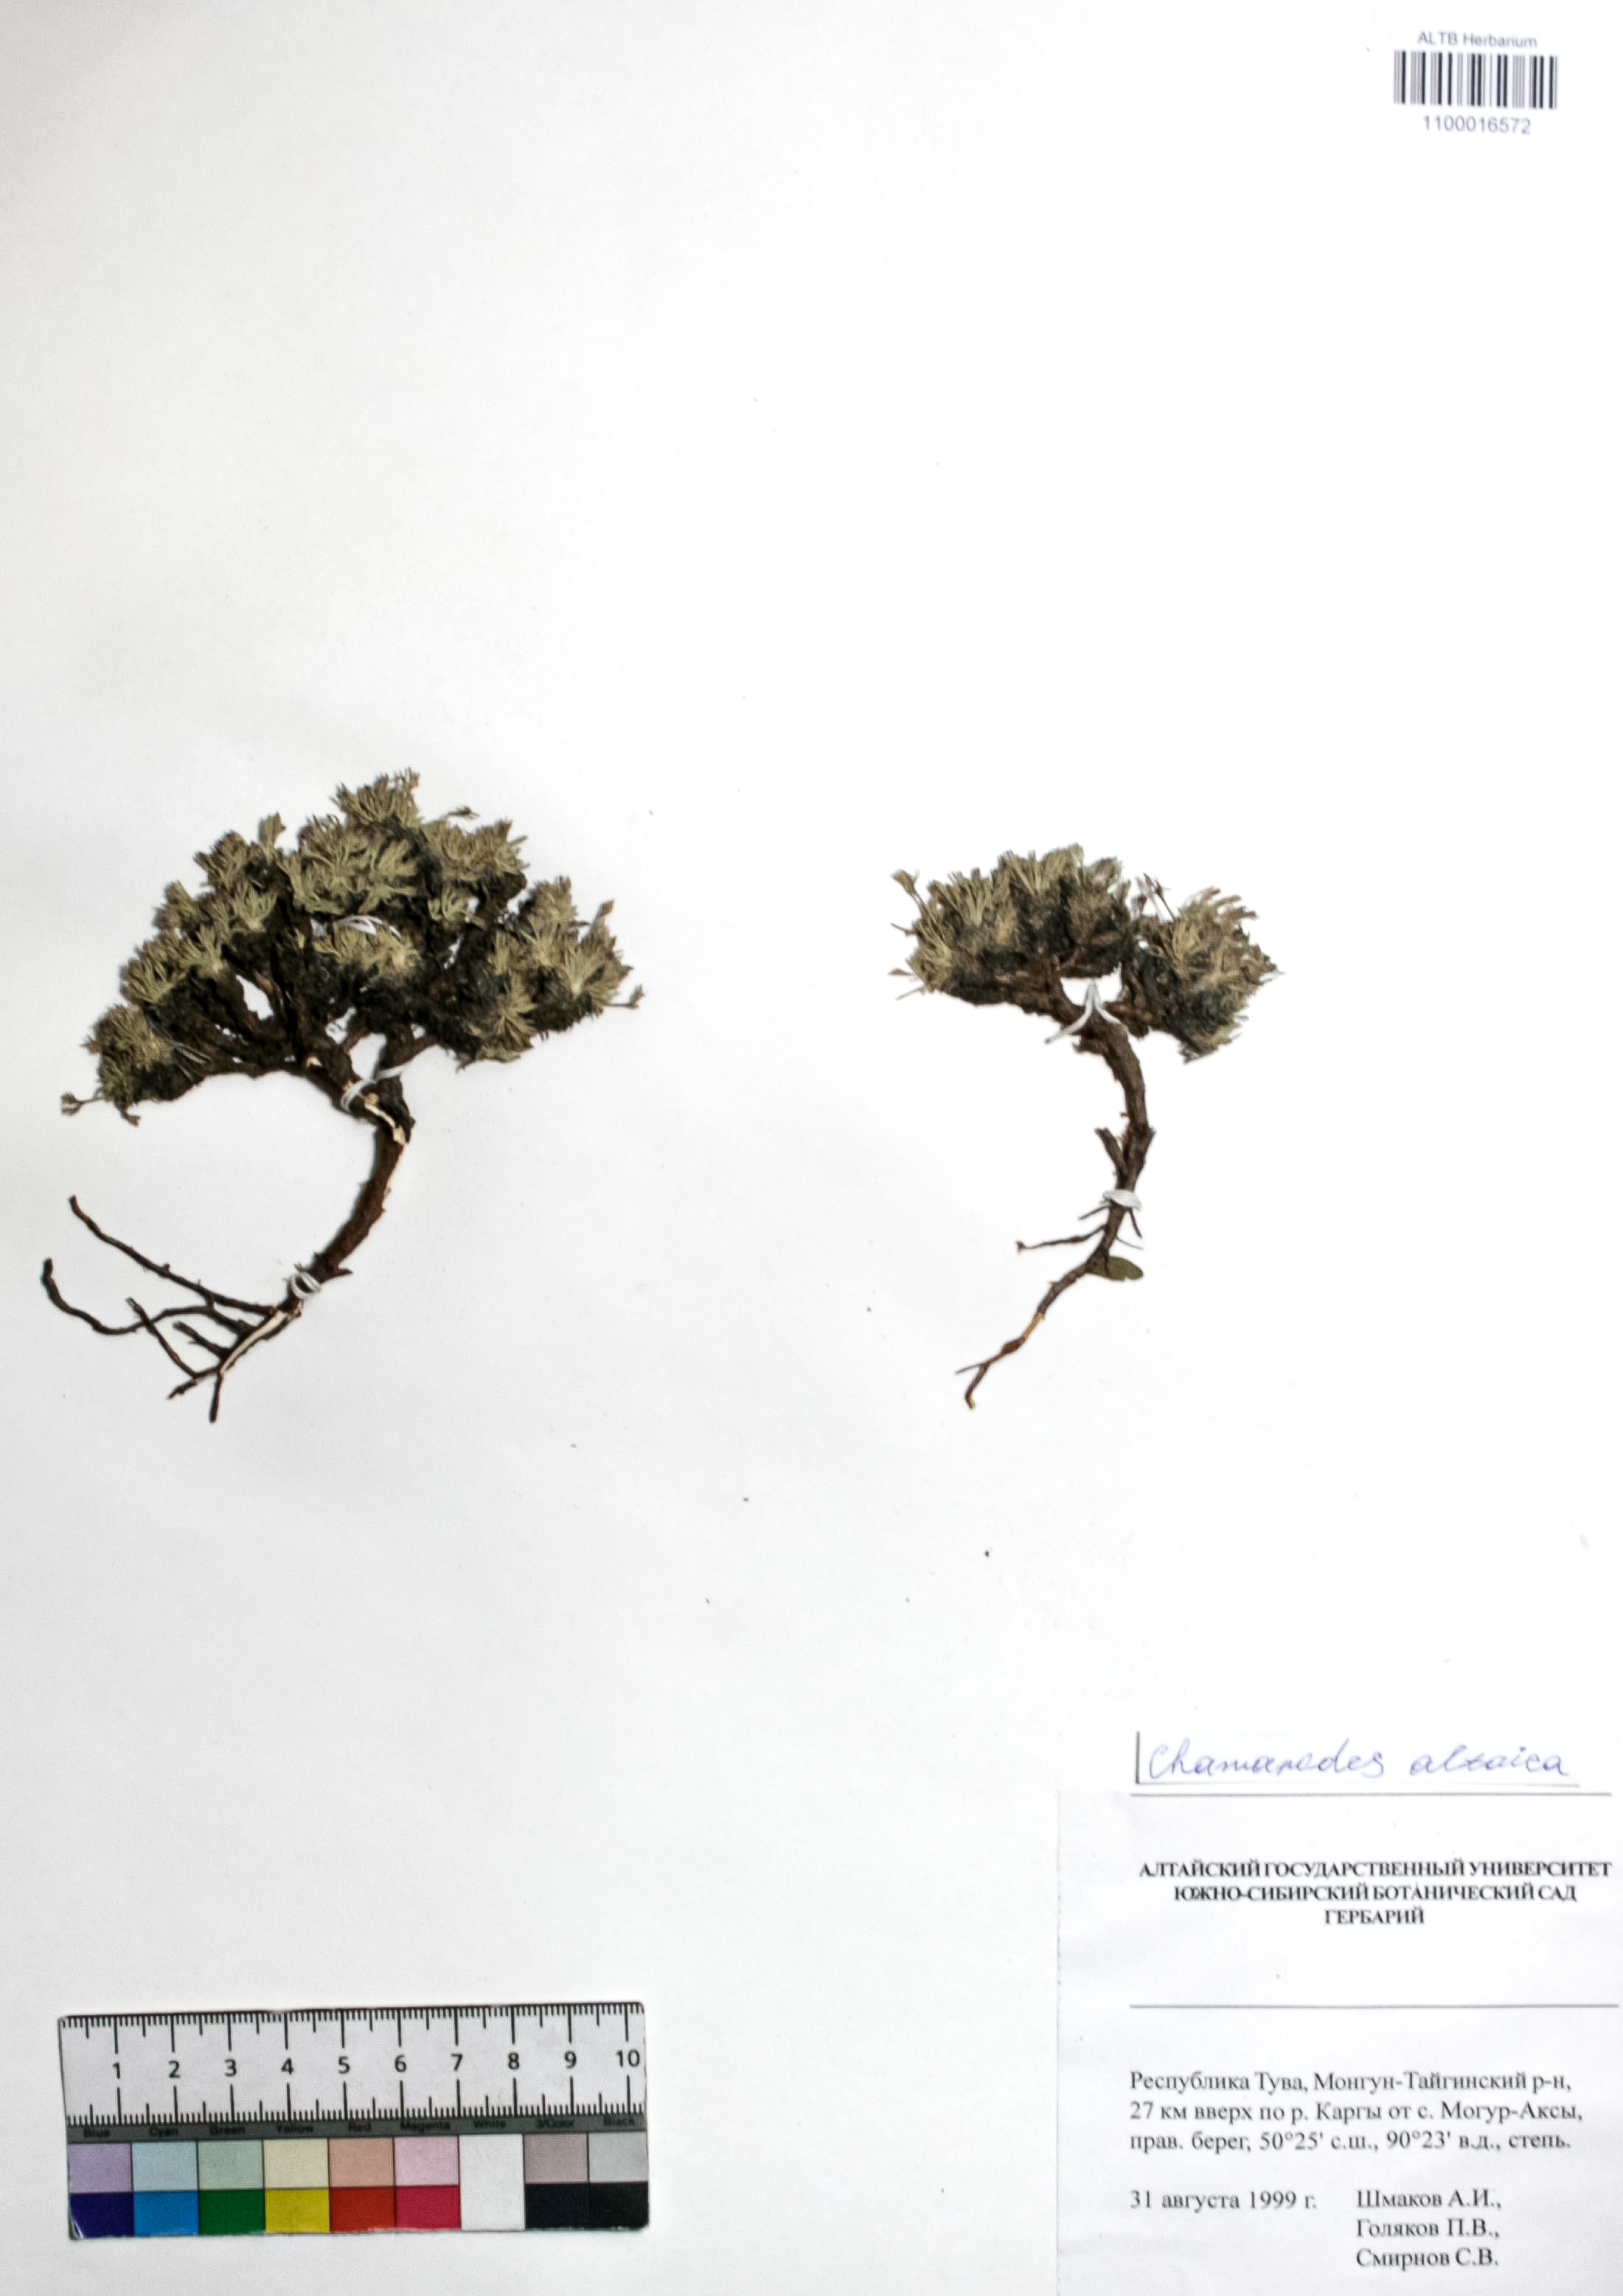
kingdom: Plantae
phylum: Tracheophyta
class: Magnoliopsida
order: Rosales
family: Rosaceae
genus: Chamaerhodos
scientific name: Chamaerhodos altaica
